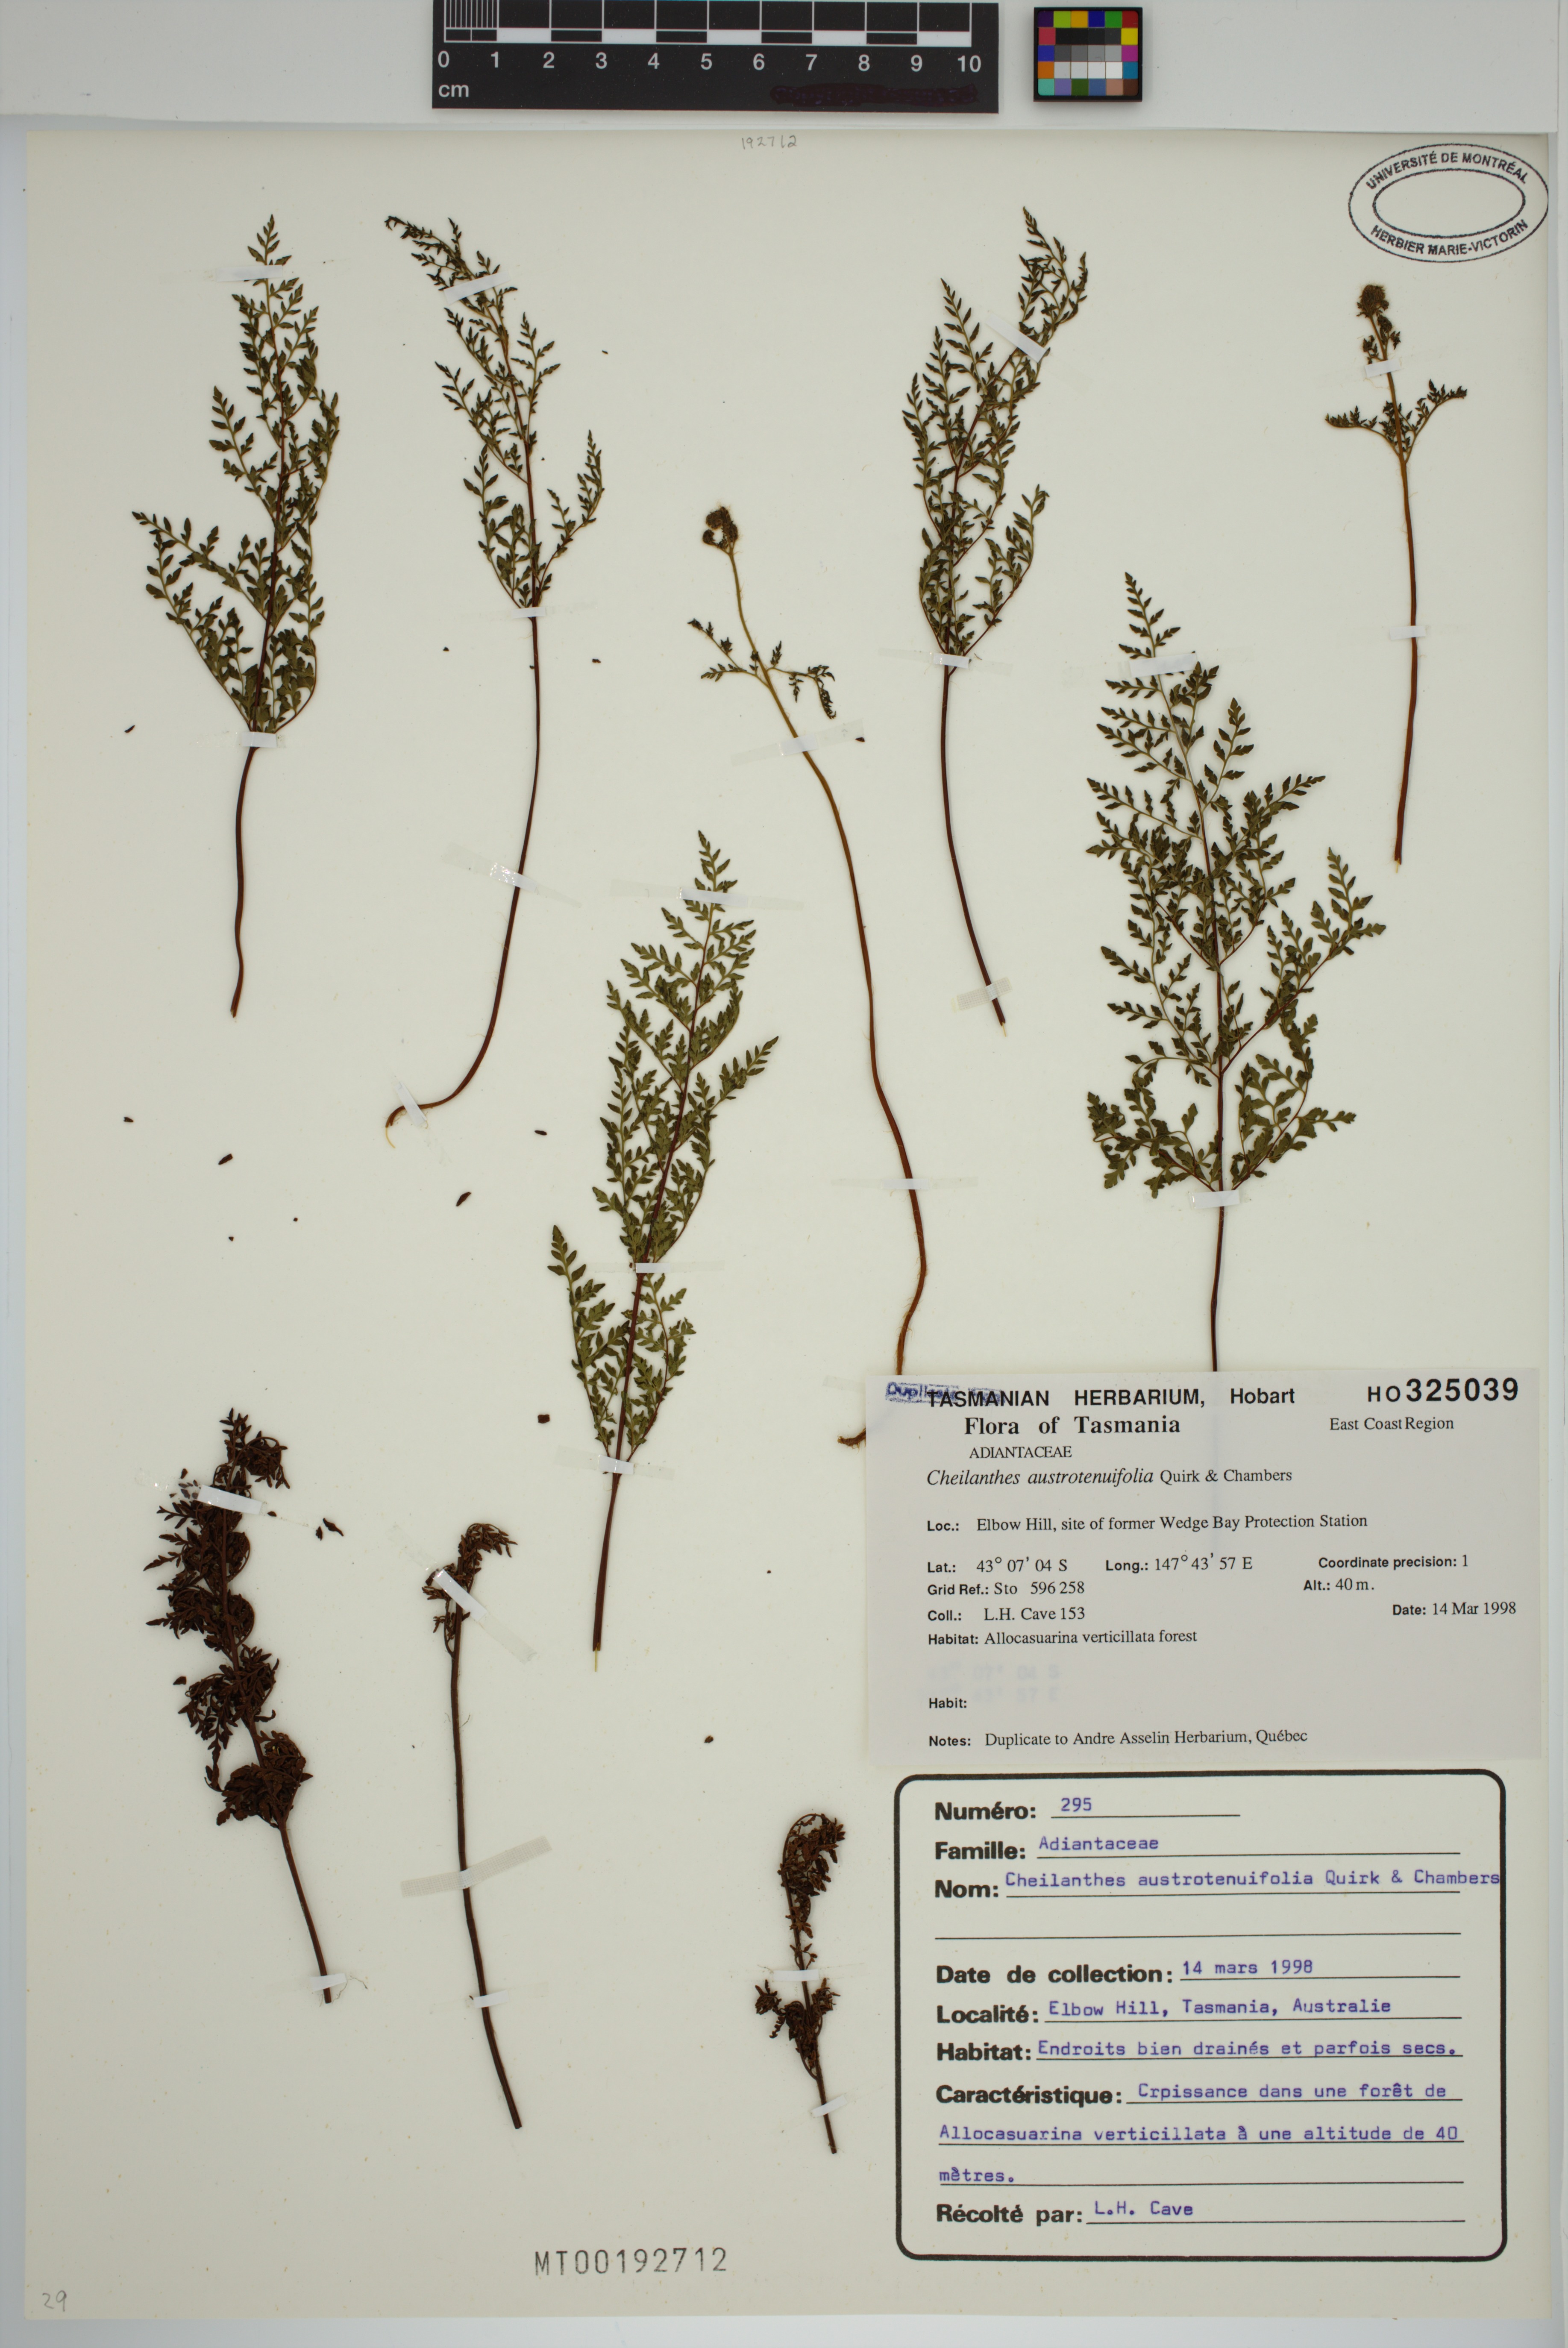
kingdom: Plantae
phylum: Tracheophyta
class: Polypodiopsida
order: Polypodiales
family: Pteridaceae
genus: Cheilanthes
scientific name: Cheilanthes austrotenuifolia
